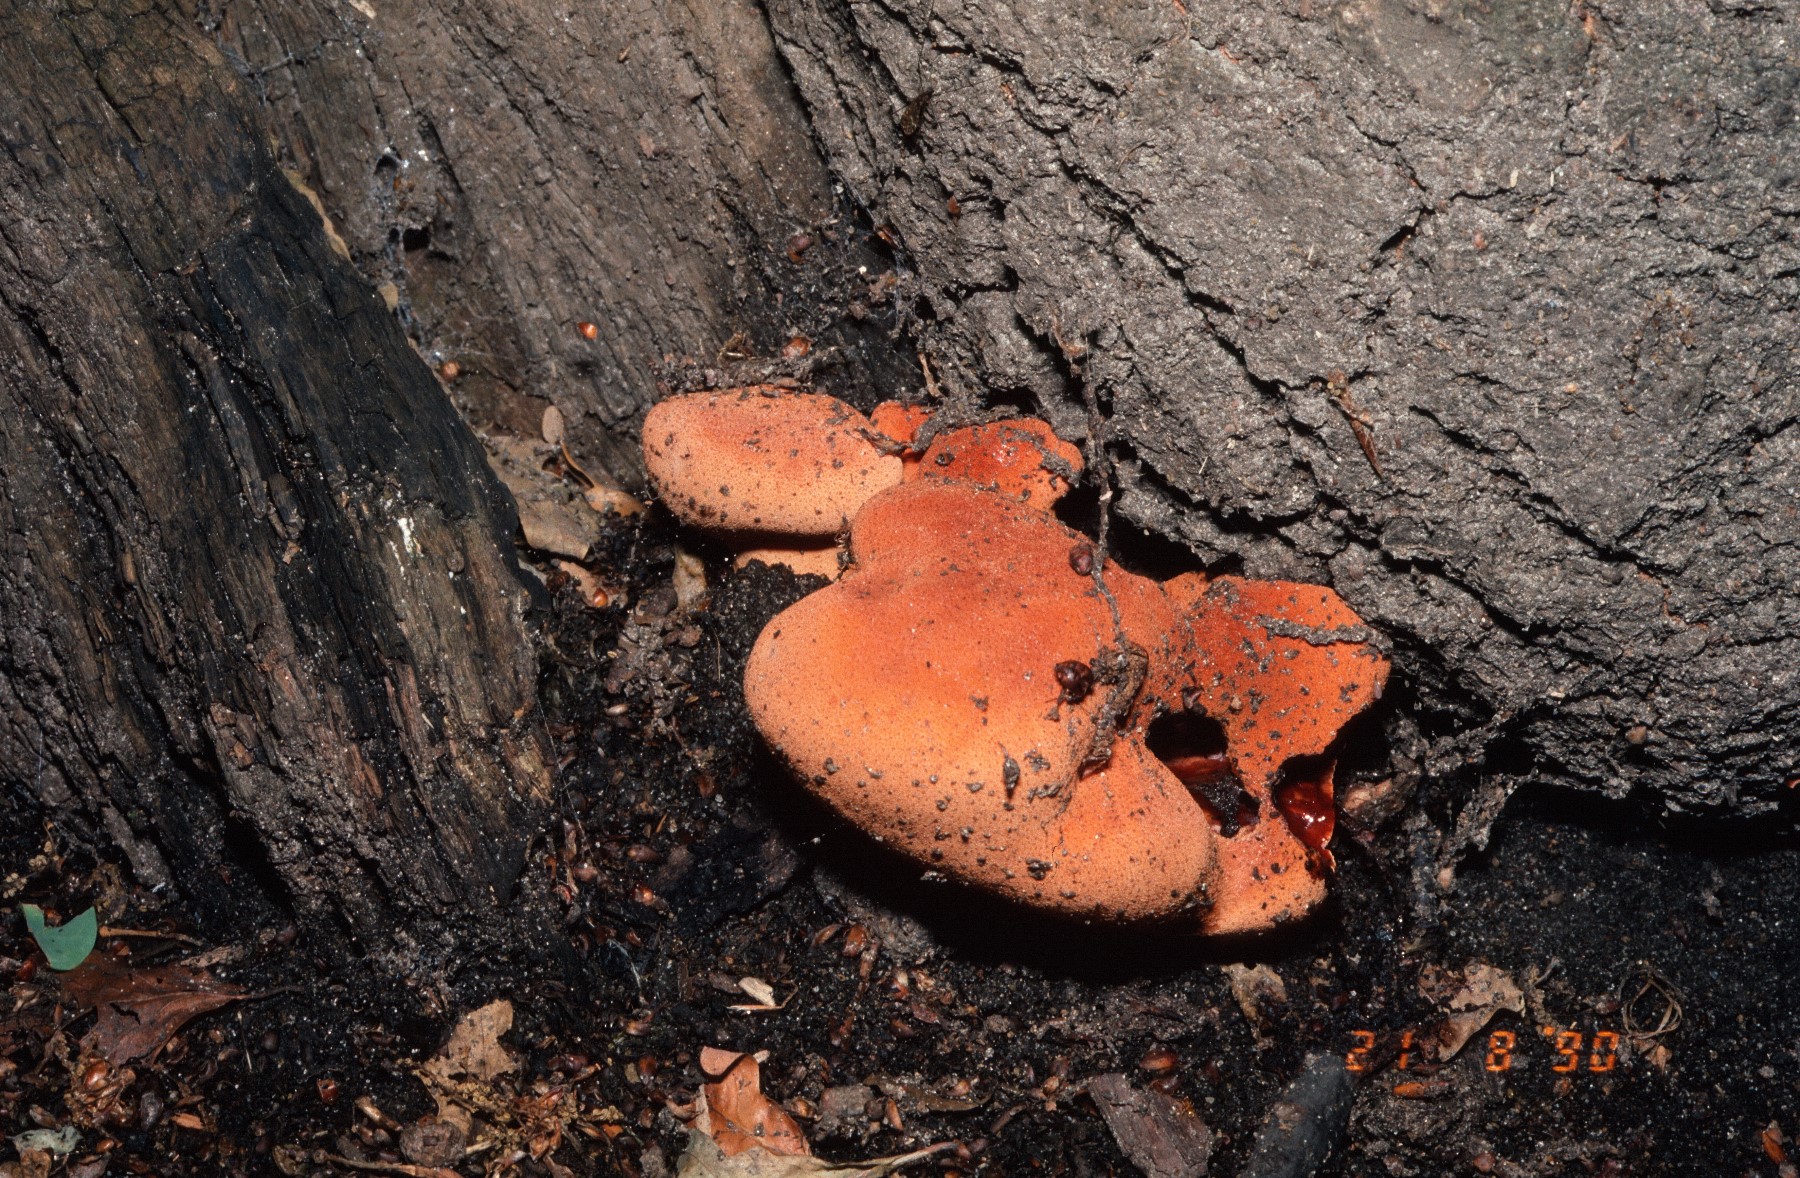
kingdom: Fungi
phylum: Basidiomycota
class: Agaricomycetes
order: Agaricales
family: Fistulinaceae
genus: Fistulina
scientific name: Fistulina hepatica
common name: oksetunge
